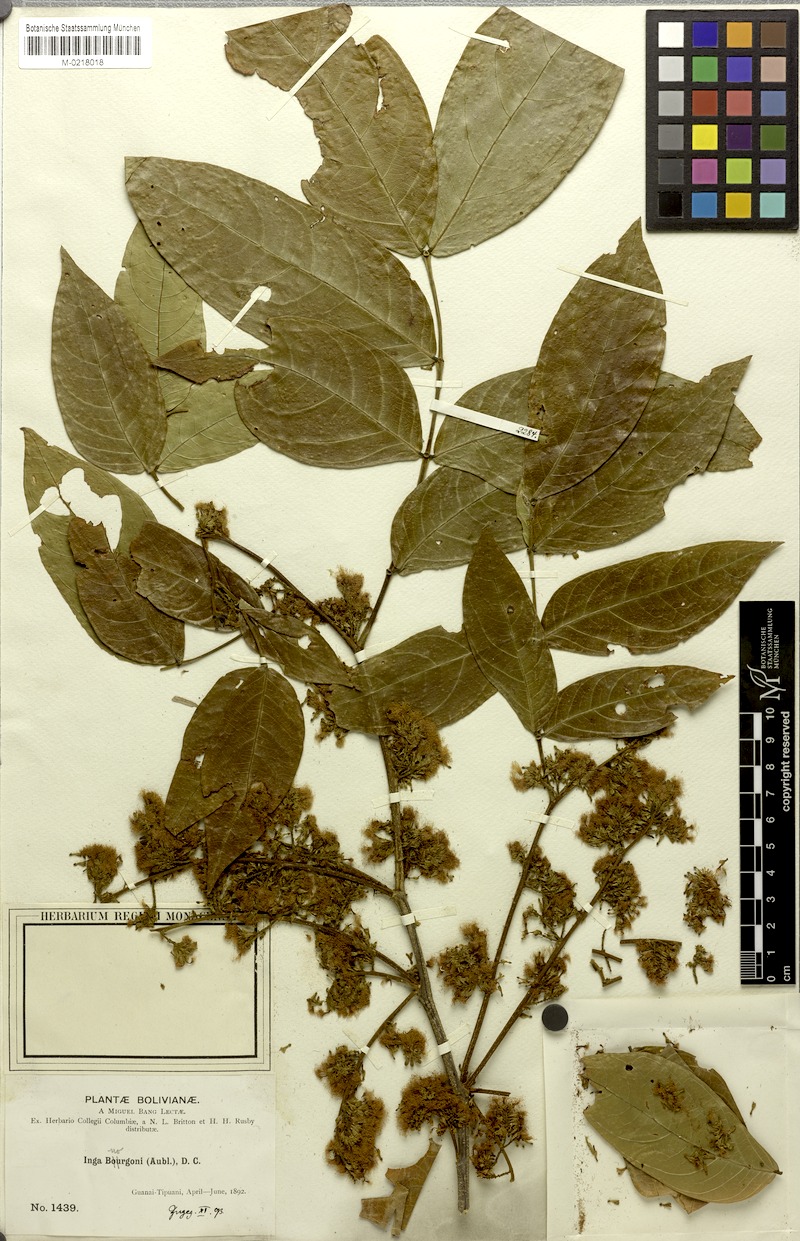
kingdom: Plantae
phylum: Tracheophyta
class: Magnoliopsida
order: Fabales
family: Fabaceae
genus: Inga
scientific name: Inga bourgoni
